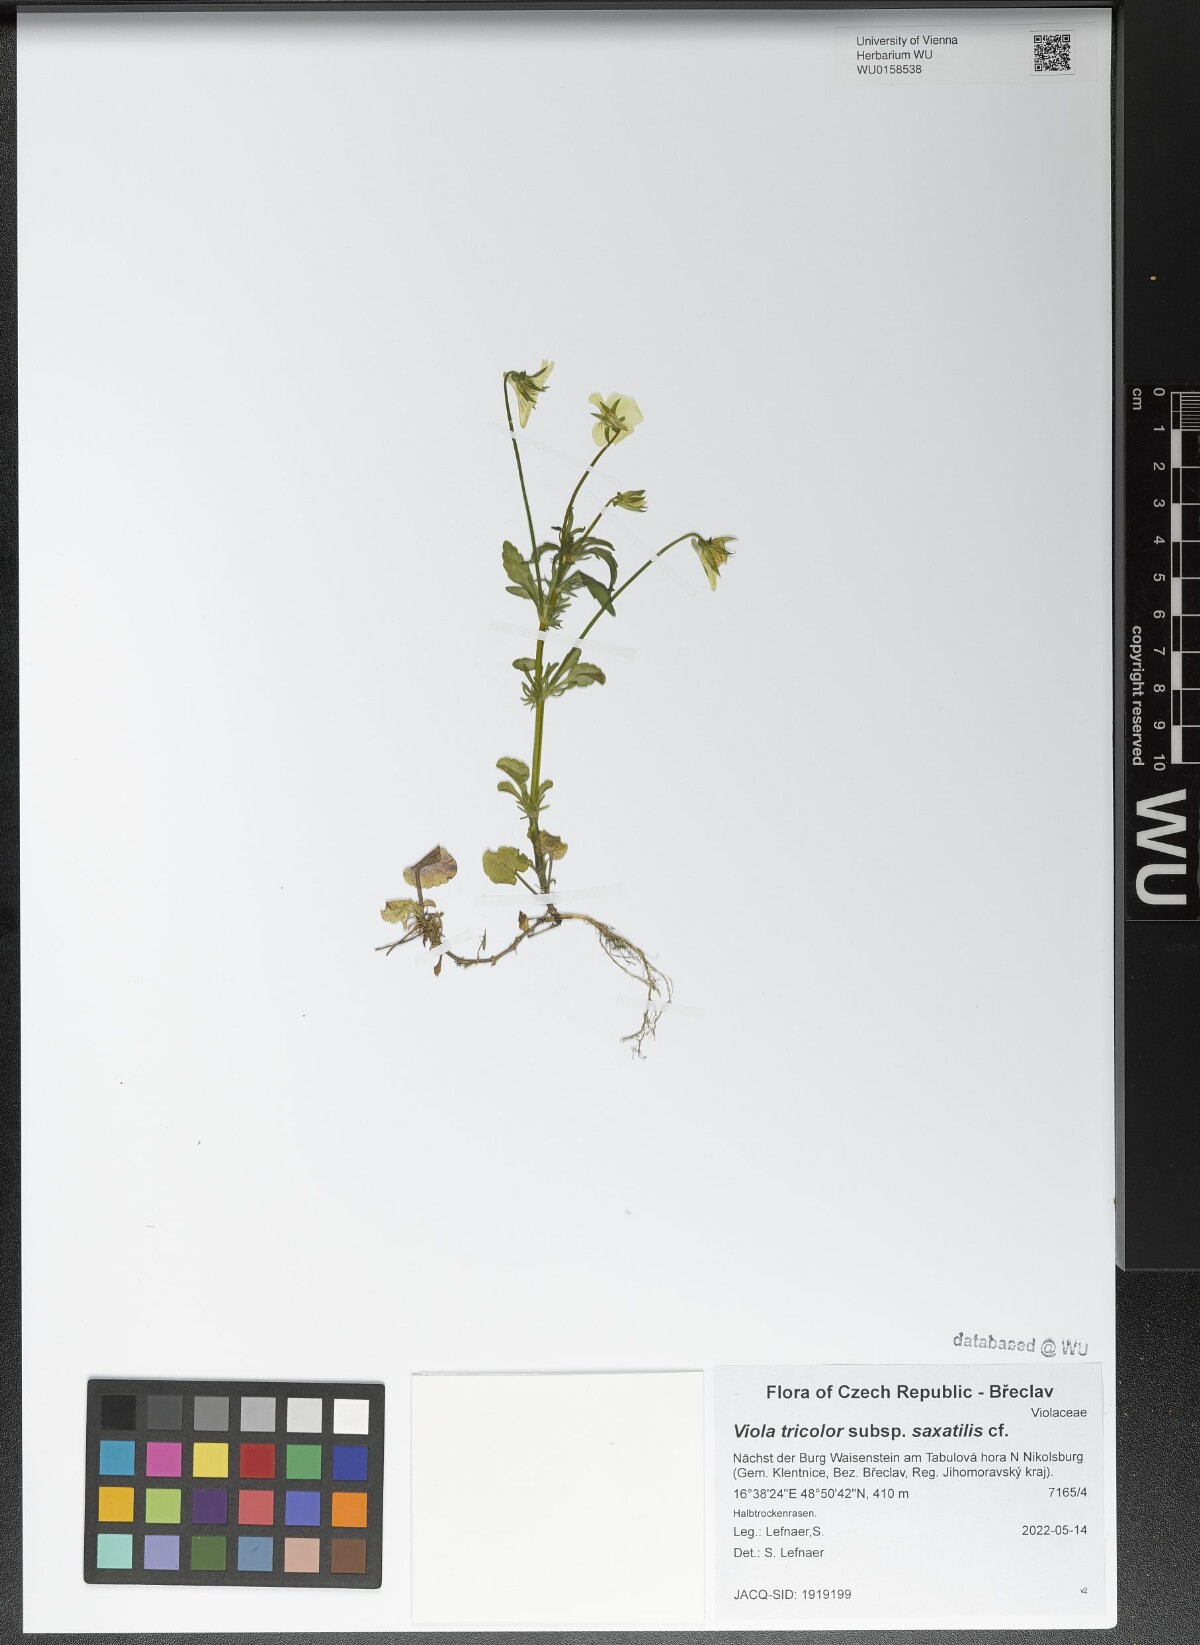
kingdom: Plantae
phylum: Tracheophyta
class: Magnoliopsida
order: Malpighiales
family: Violaceae
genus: Viola
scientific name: Viola tricolor
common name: Pansy
